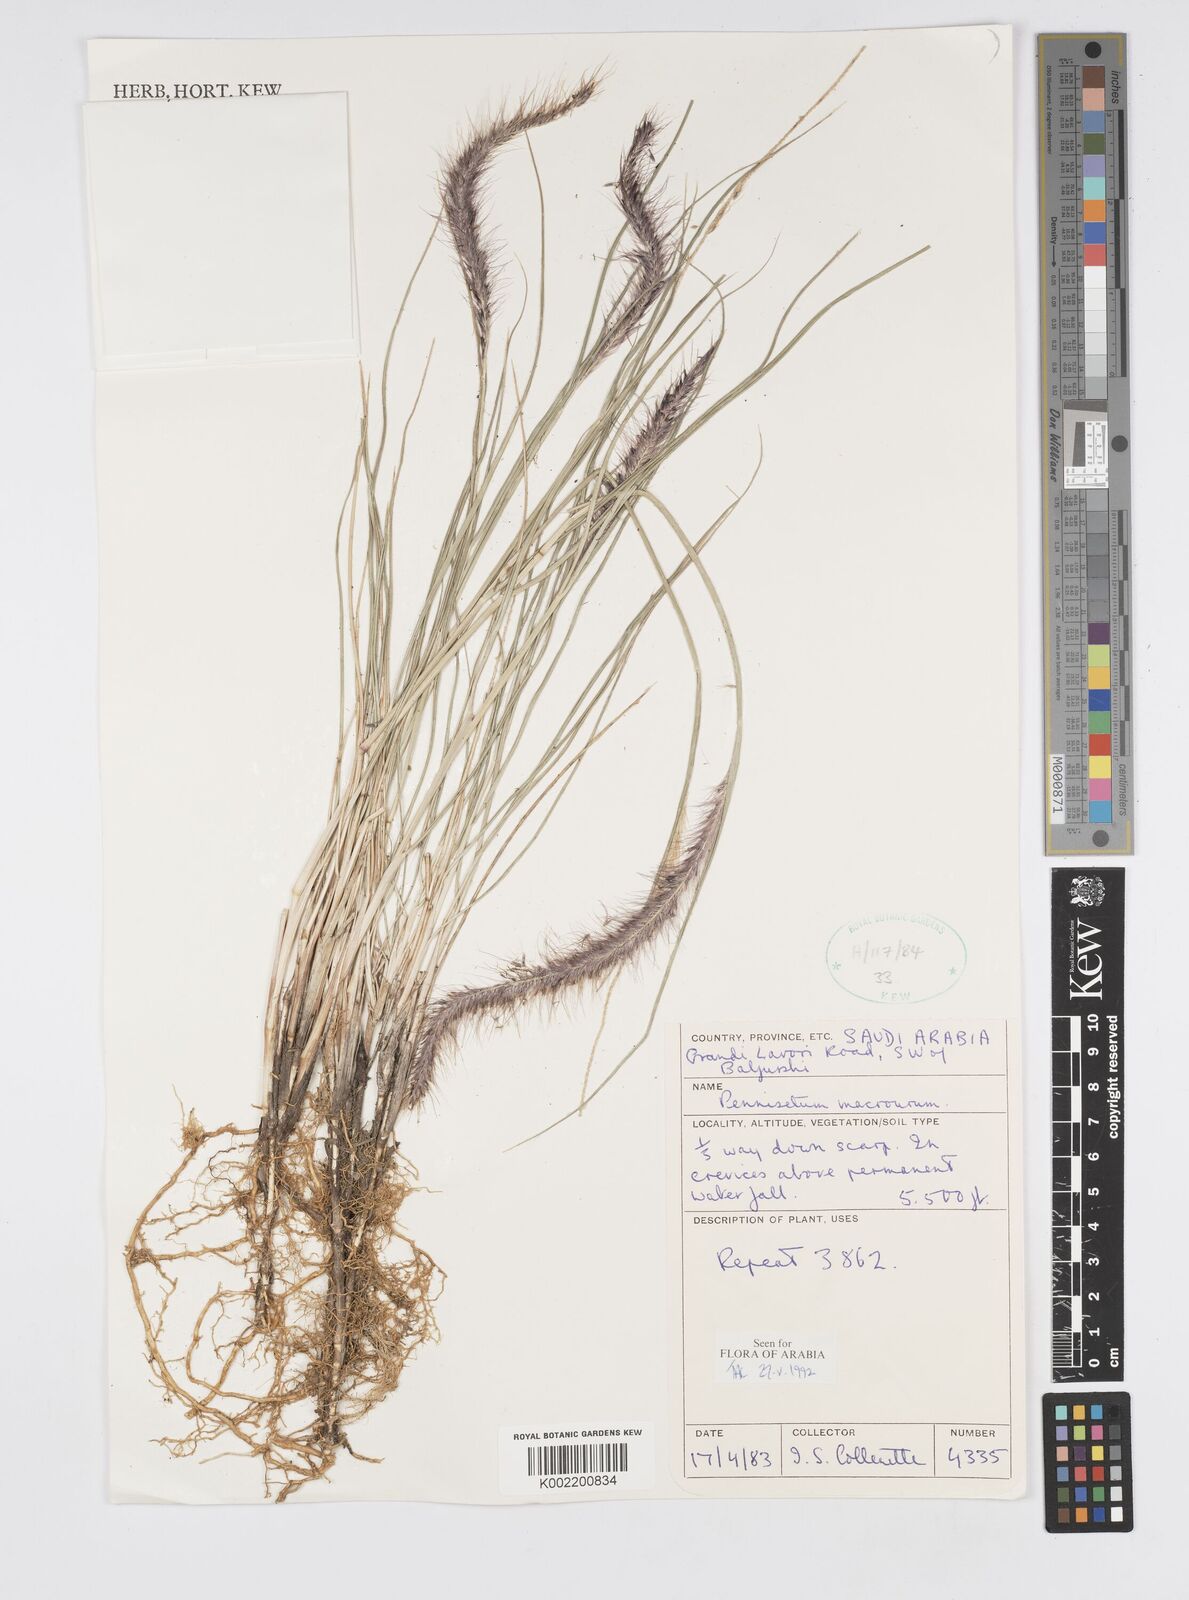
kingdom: Plantae
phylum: Tracheophyta
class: Liliopsida
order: Poales
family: Poaceae
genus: Cenchrus
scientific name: Cenchrus caudatus
